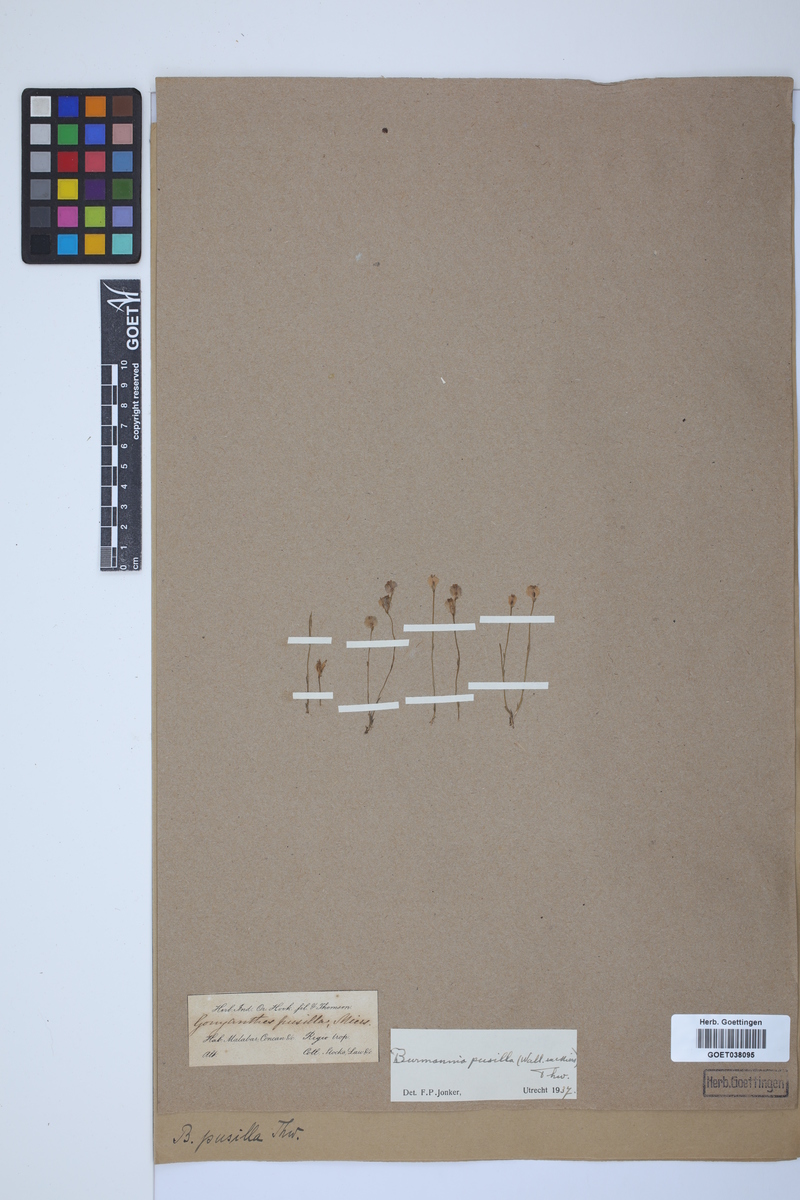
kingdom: Plantae
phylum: Tracheophyta
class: Liliopsida
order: Dioscoreales
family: Burmanniaceae
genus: Burmannia
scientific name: Burmannia pusilla
